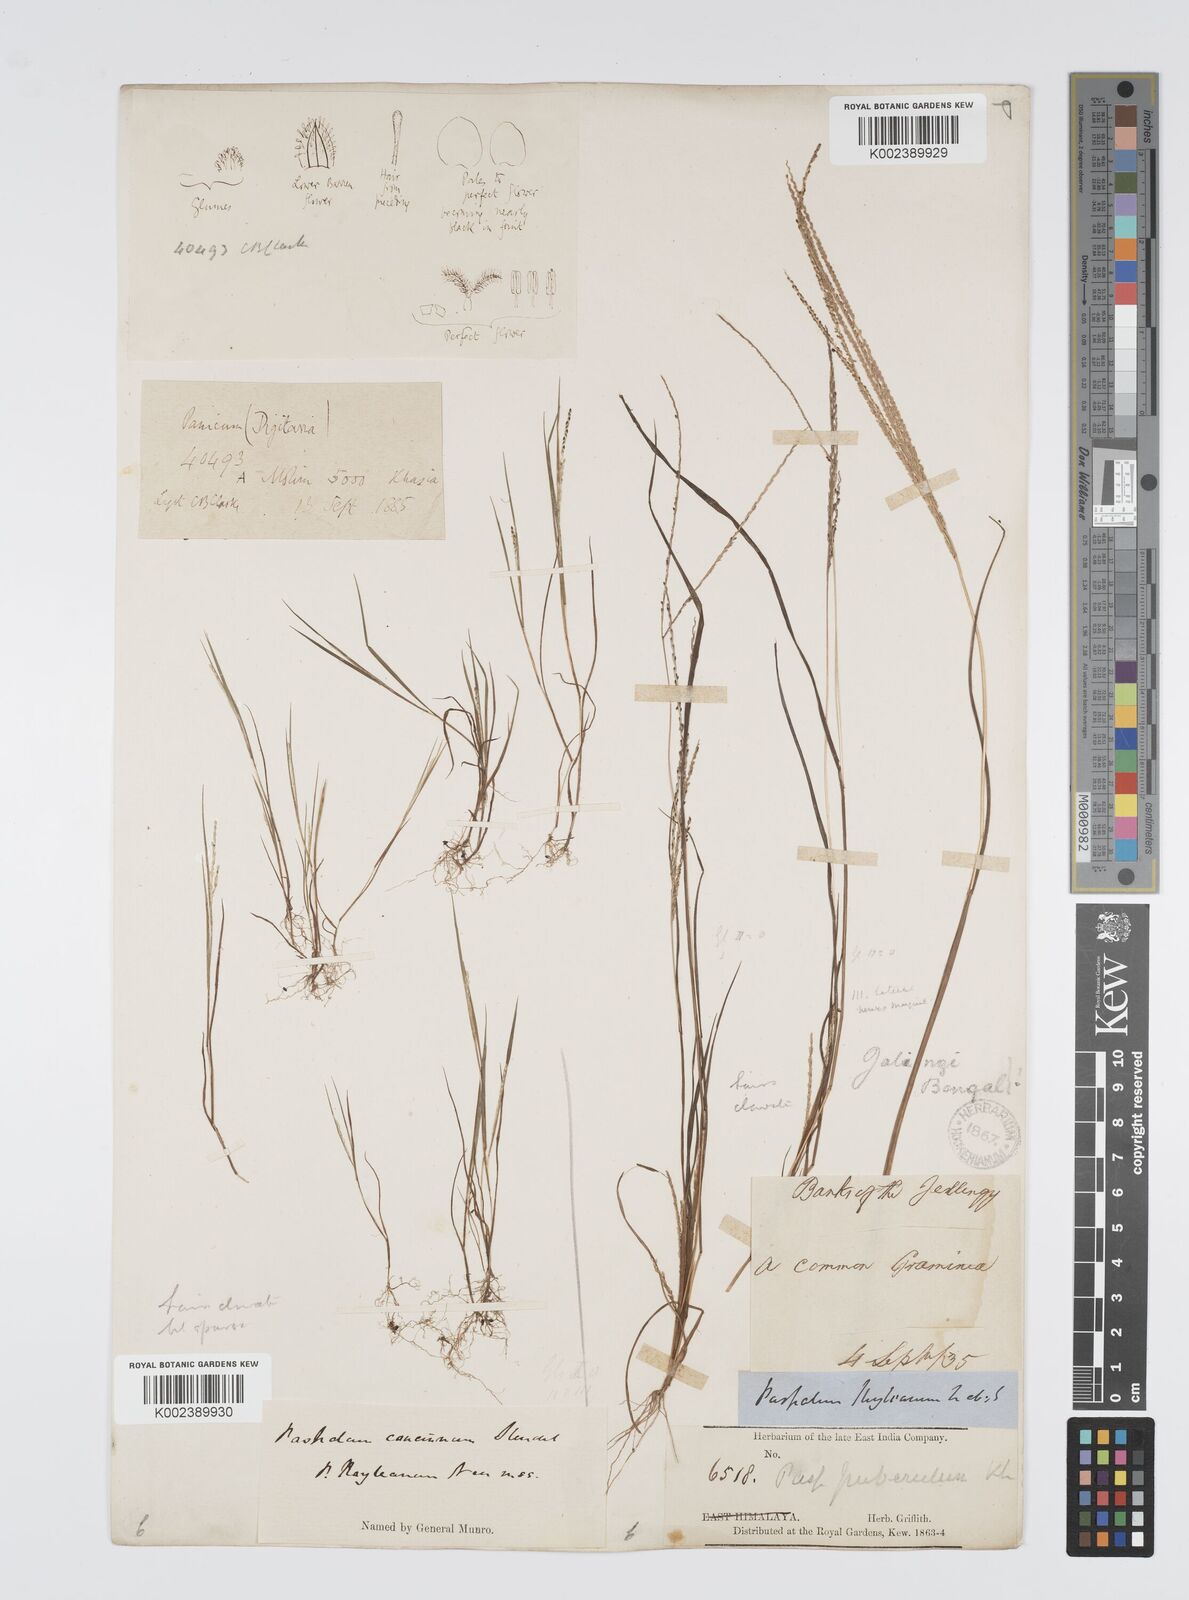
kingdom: Plantae
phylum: Tracheophyta
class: Liliopsida
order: Poales
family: Poaceae
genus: Digitaria
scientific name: Digitaria stricta
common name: Crabgrass
